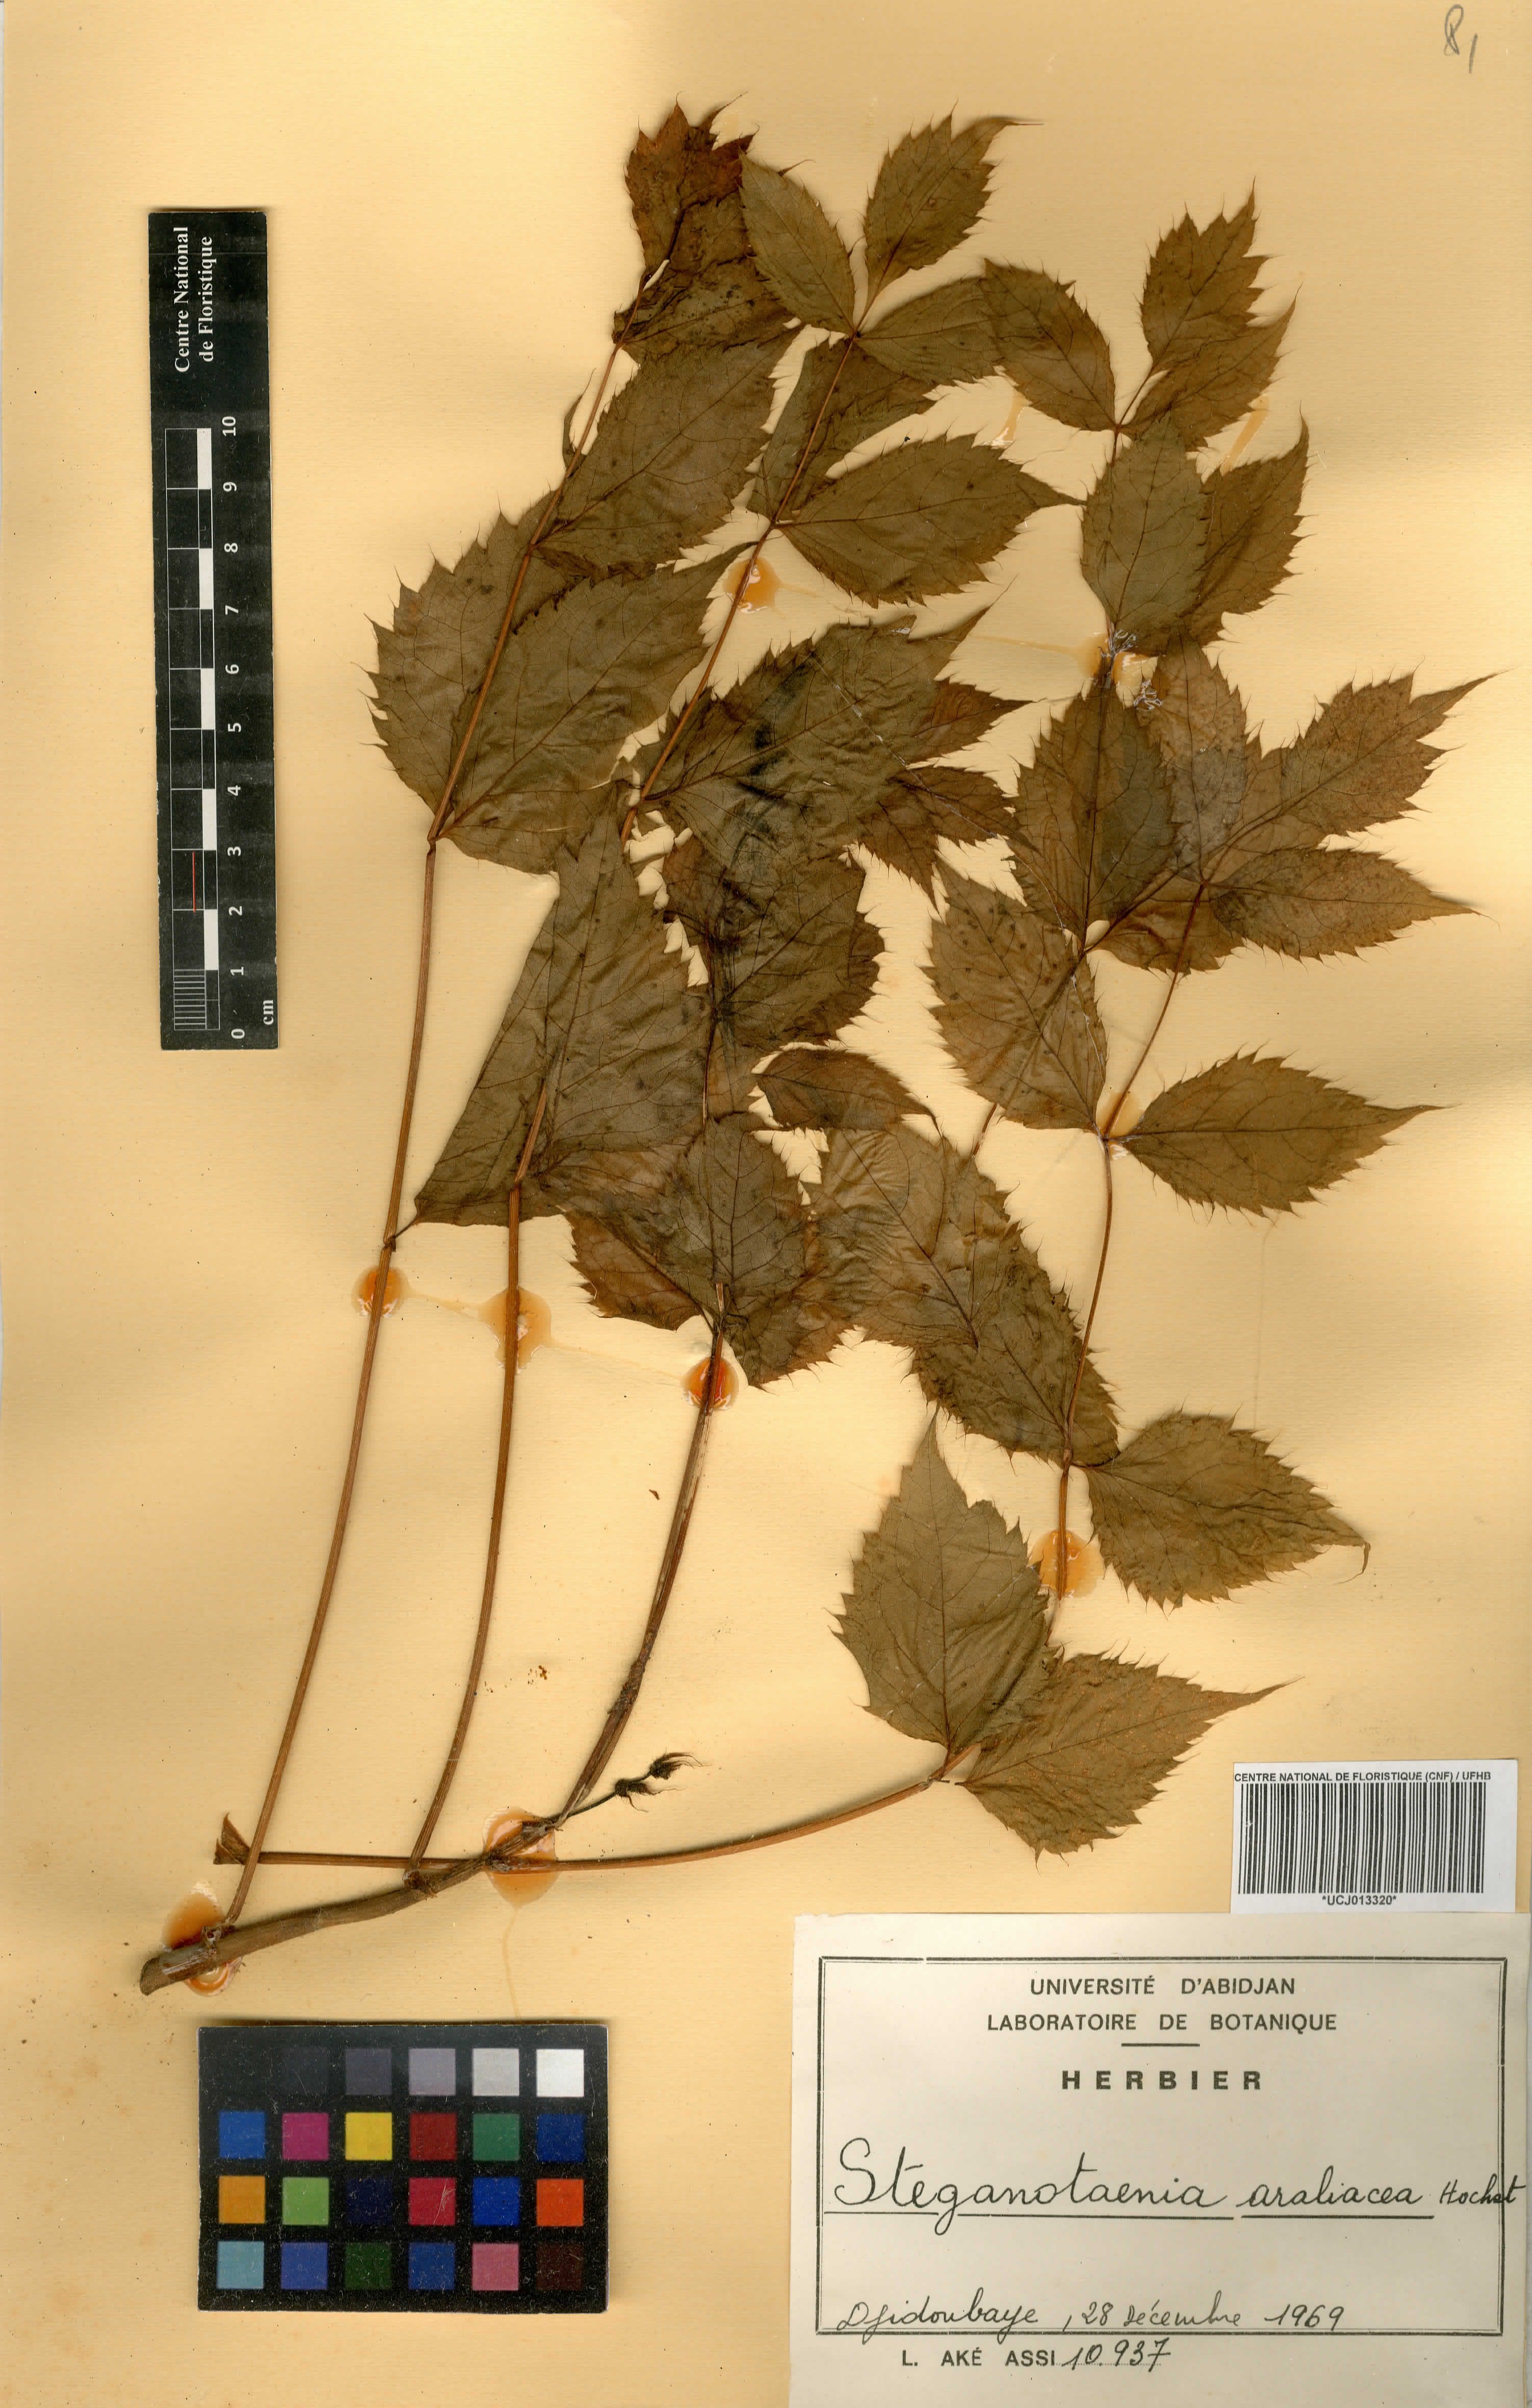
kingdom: Plantae
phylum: Tracheophyta
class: Magnoliopsida
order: Apiales
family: Apiaceae
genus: Steganotaenia
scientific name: Steganotaenia araliacea
